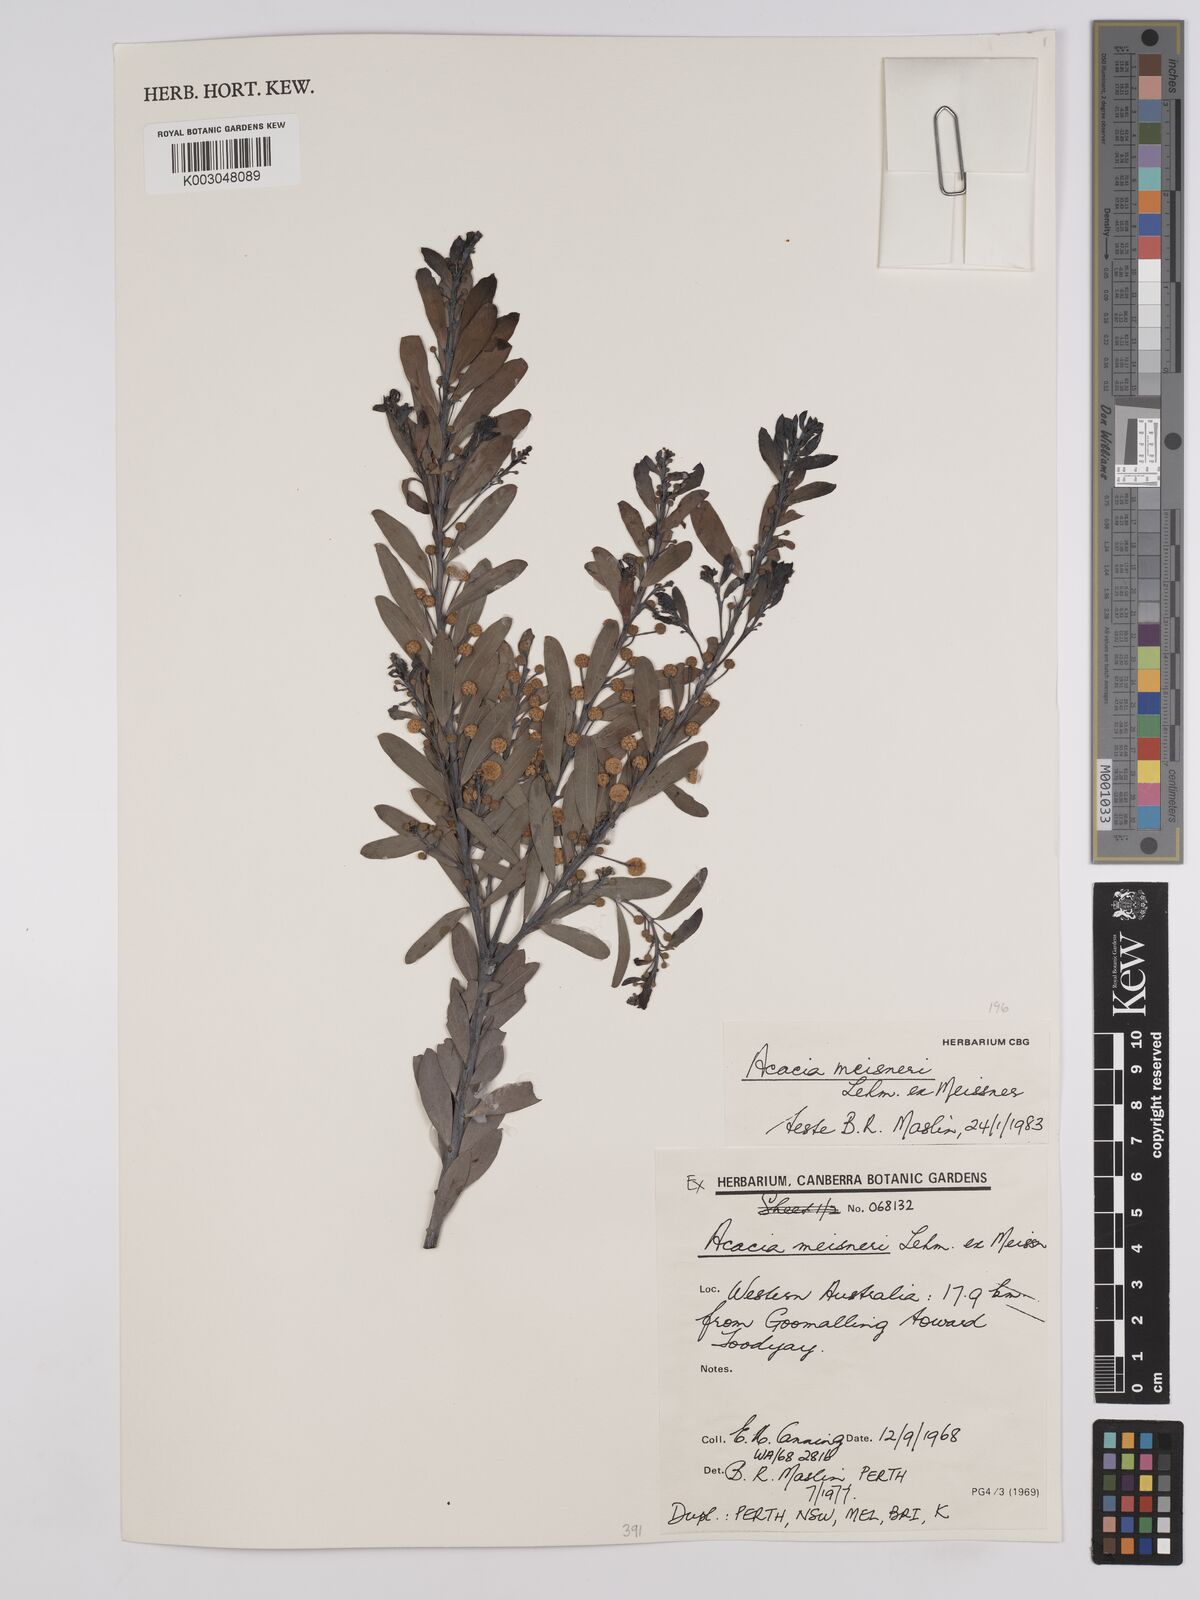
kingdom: Plantae
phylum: Tracheophyta
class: Magnoliopsida
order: Fabales
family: Fabaceae
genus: Acacia
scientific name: Acacia meisneri
